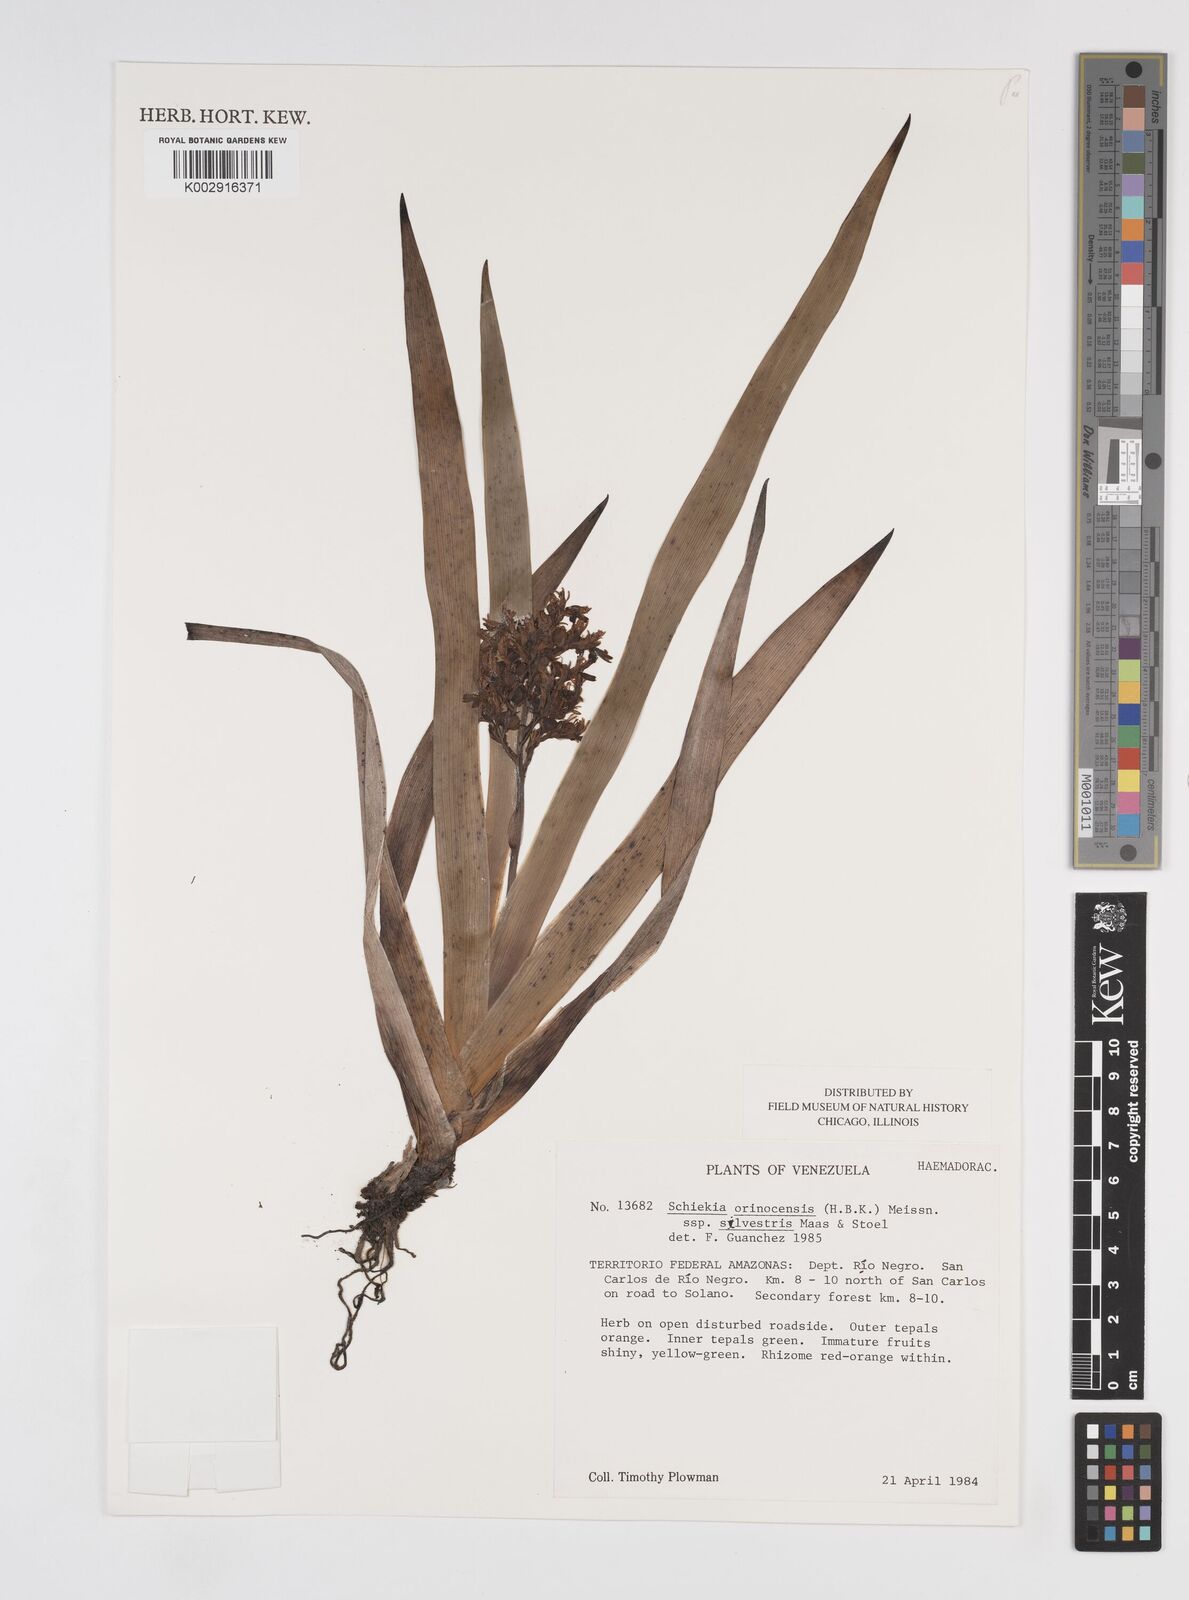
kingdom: Plantae
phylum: Tracheophyta
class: Liliopsida
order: Commelinales
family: Haemodoraceae
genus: Schiekia
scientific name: Schiekia silvestris
